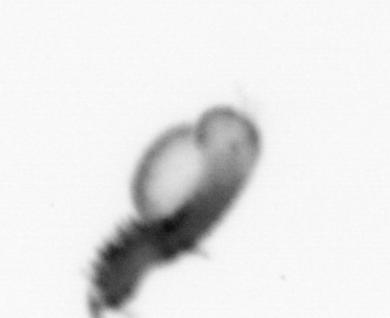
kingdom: Animalia
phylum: Annelida
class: Polychaeta
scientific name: Polychaeta
